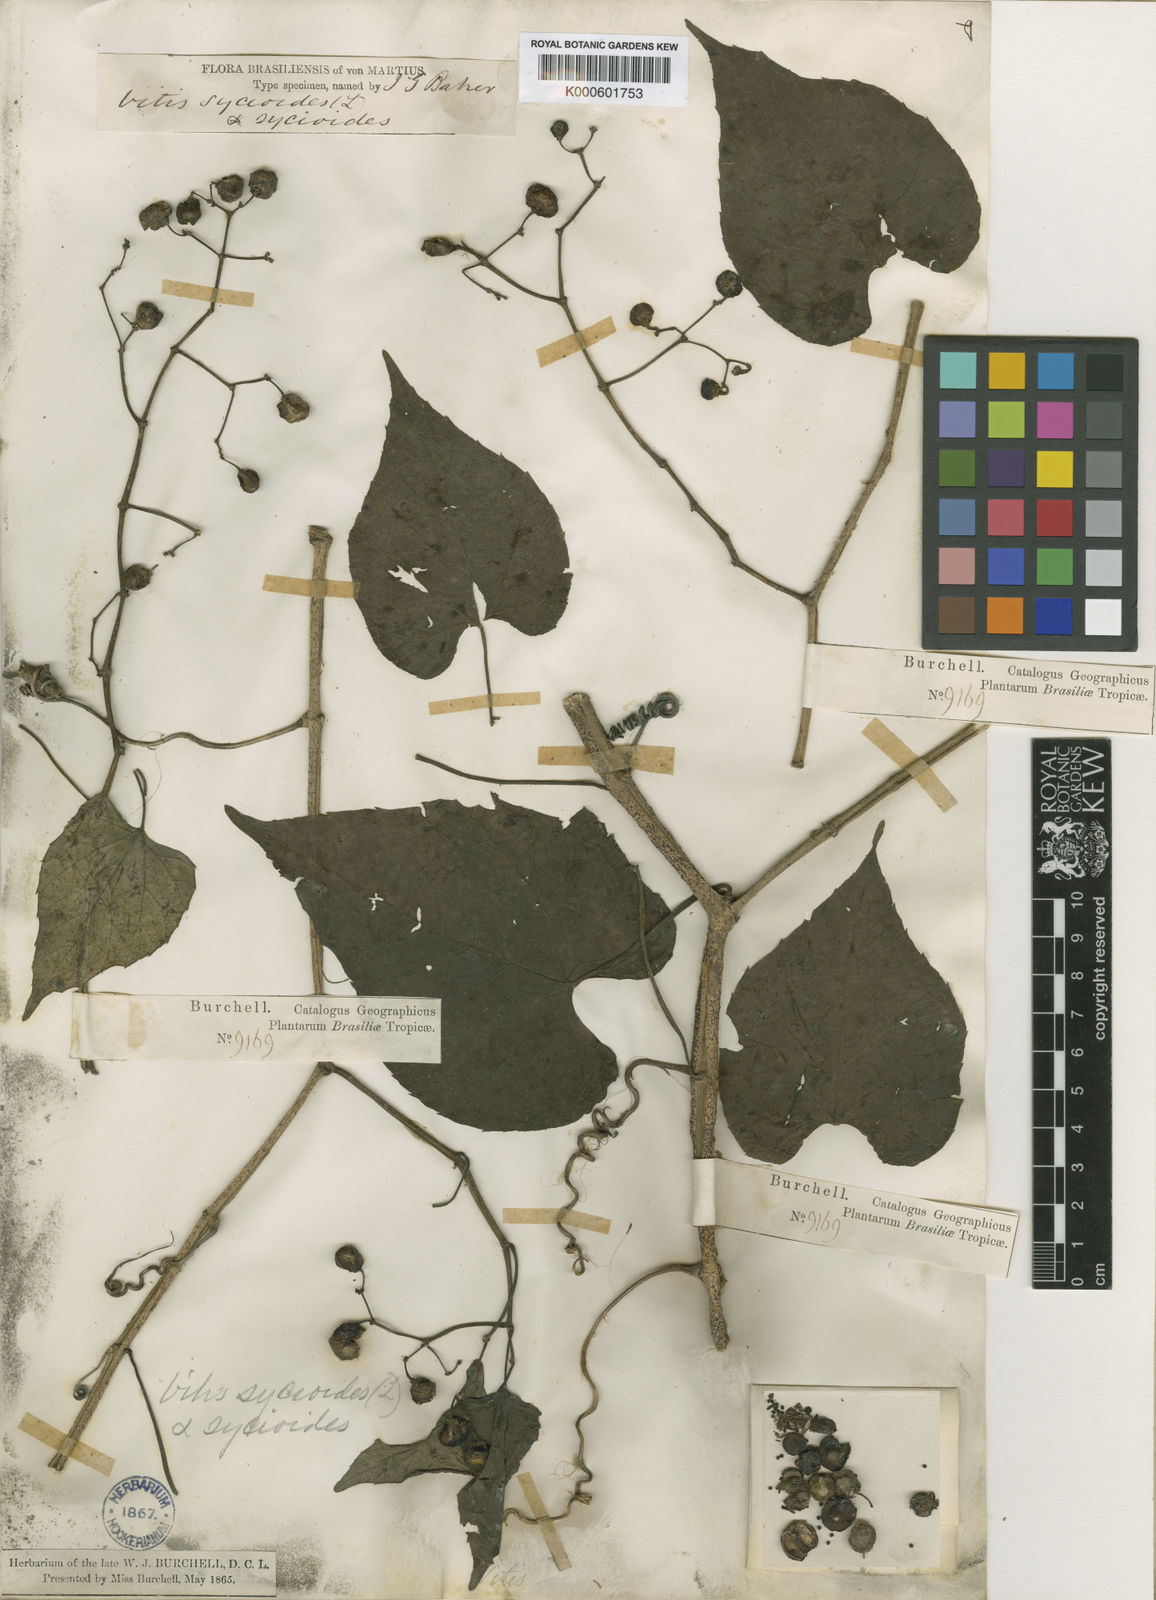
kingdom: Plantae
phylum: Tracheophyta
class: Magnoliopsida
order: Vitales
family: Vitaceae
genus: Cissus
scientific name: Cissus verticillata
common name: Princess vine
